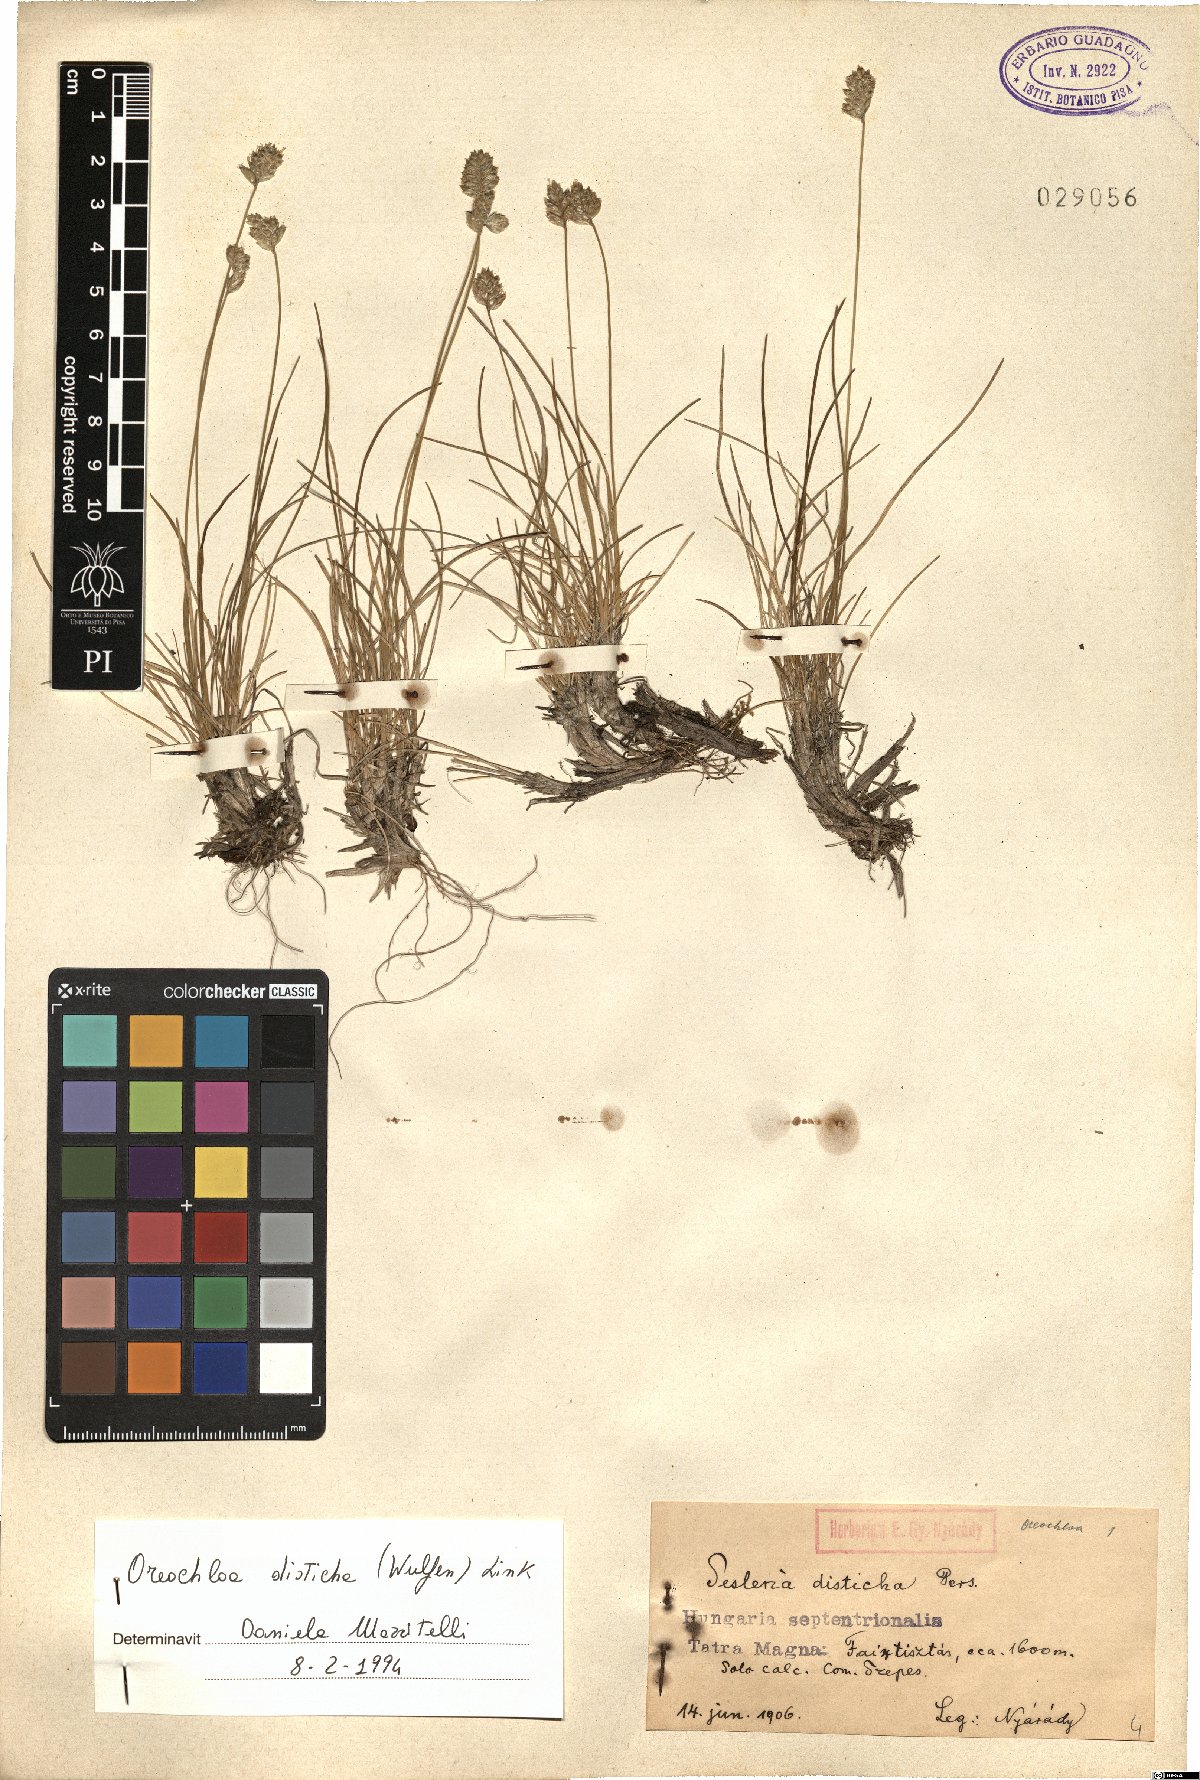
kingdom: Plantae
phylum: Tracheophyta
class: Liliopsida
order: Poales
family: Poaceae
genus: Oreochloa
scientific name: Oreochloa disticha
